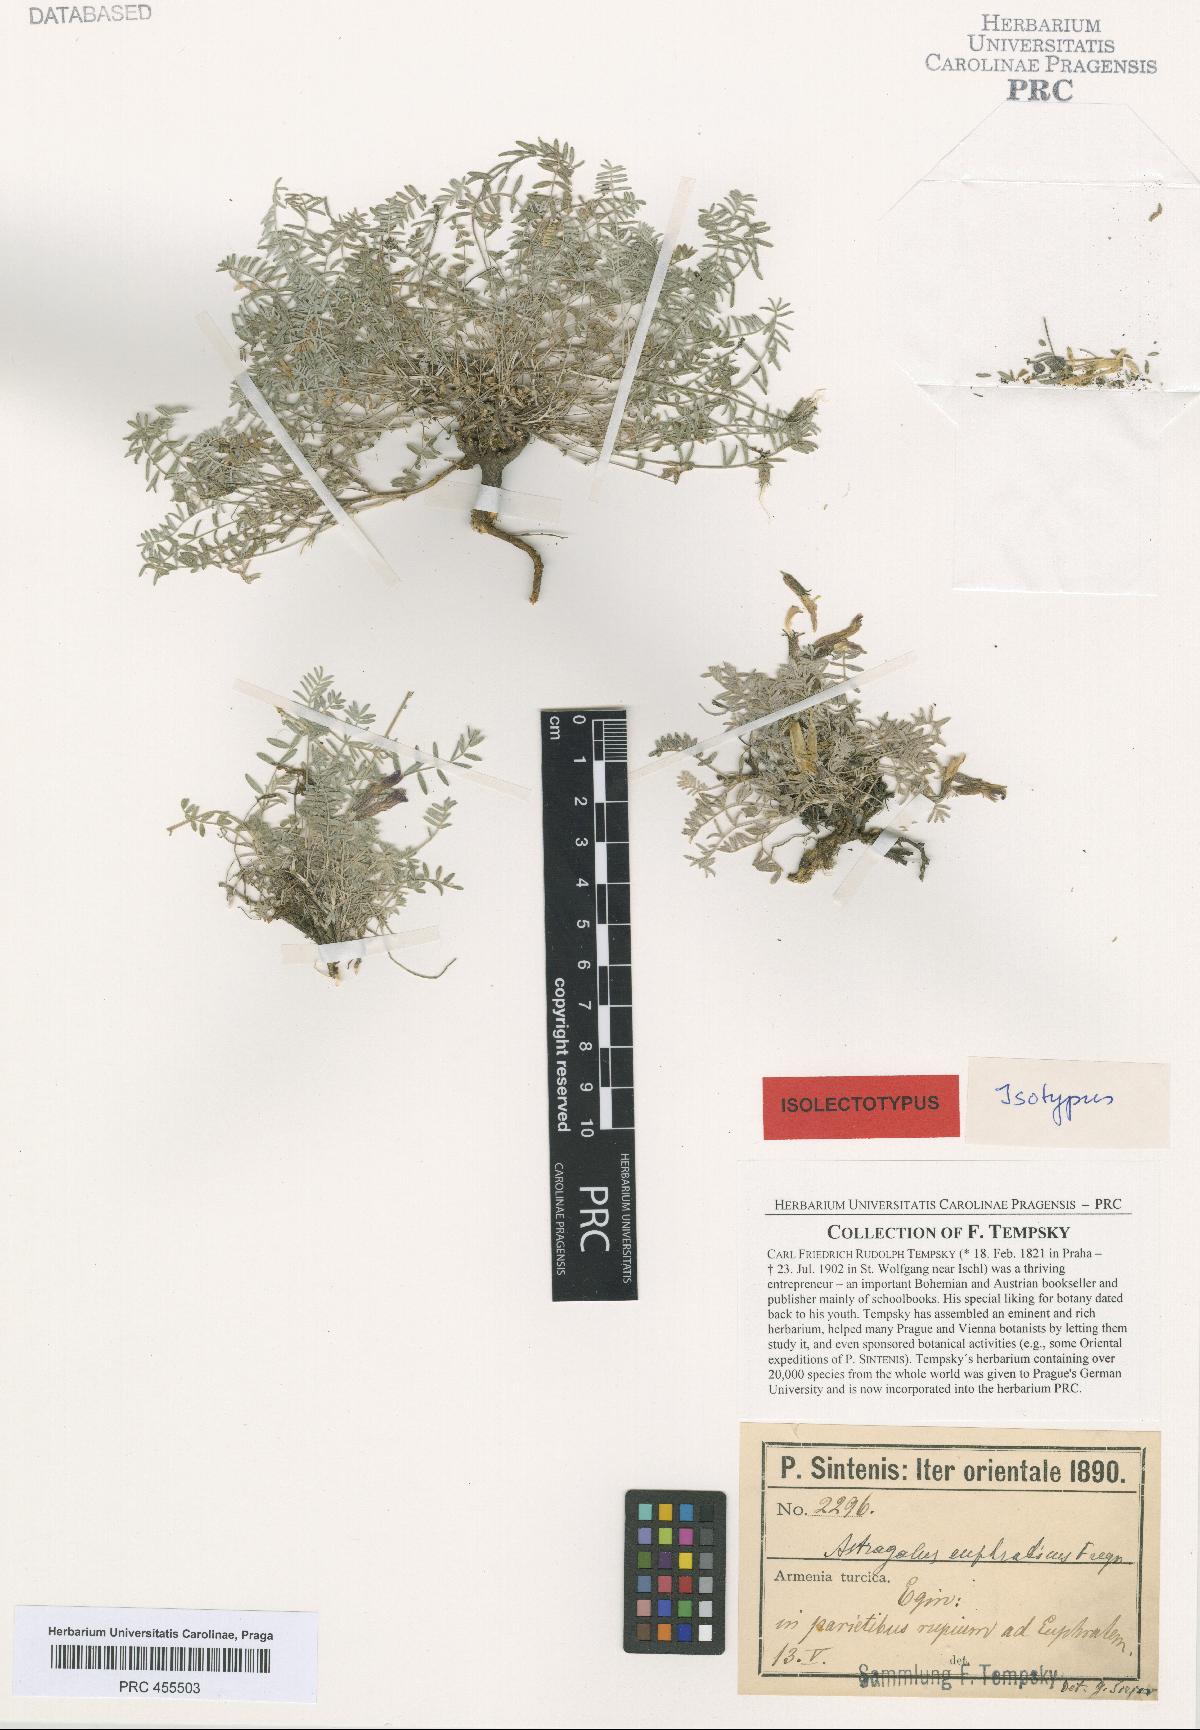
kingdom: Plantae
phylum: Tracheophyta
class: Magnoliopsida
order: Fabales
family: Fabaceae
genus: Astragalus
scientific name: Astragalus cadmicus
